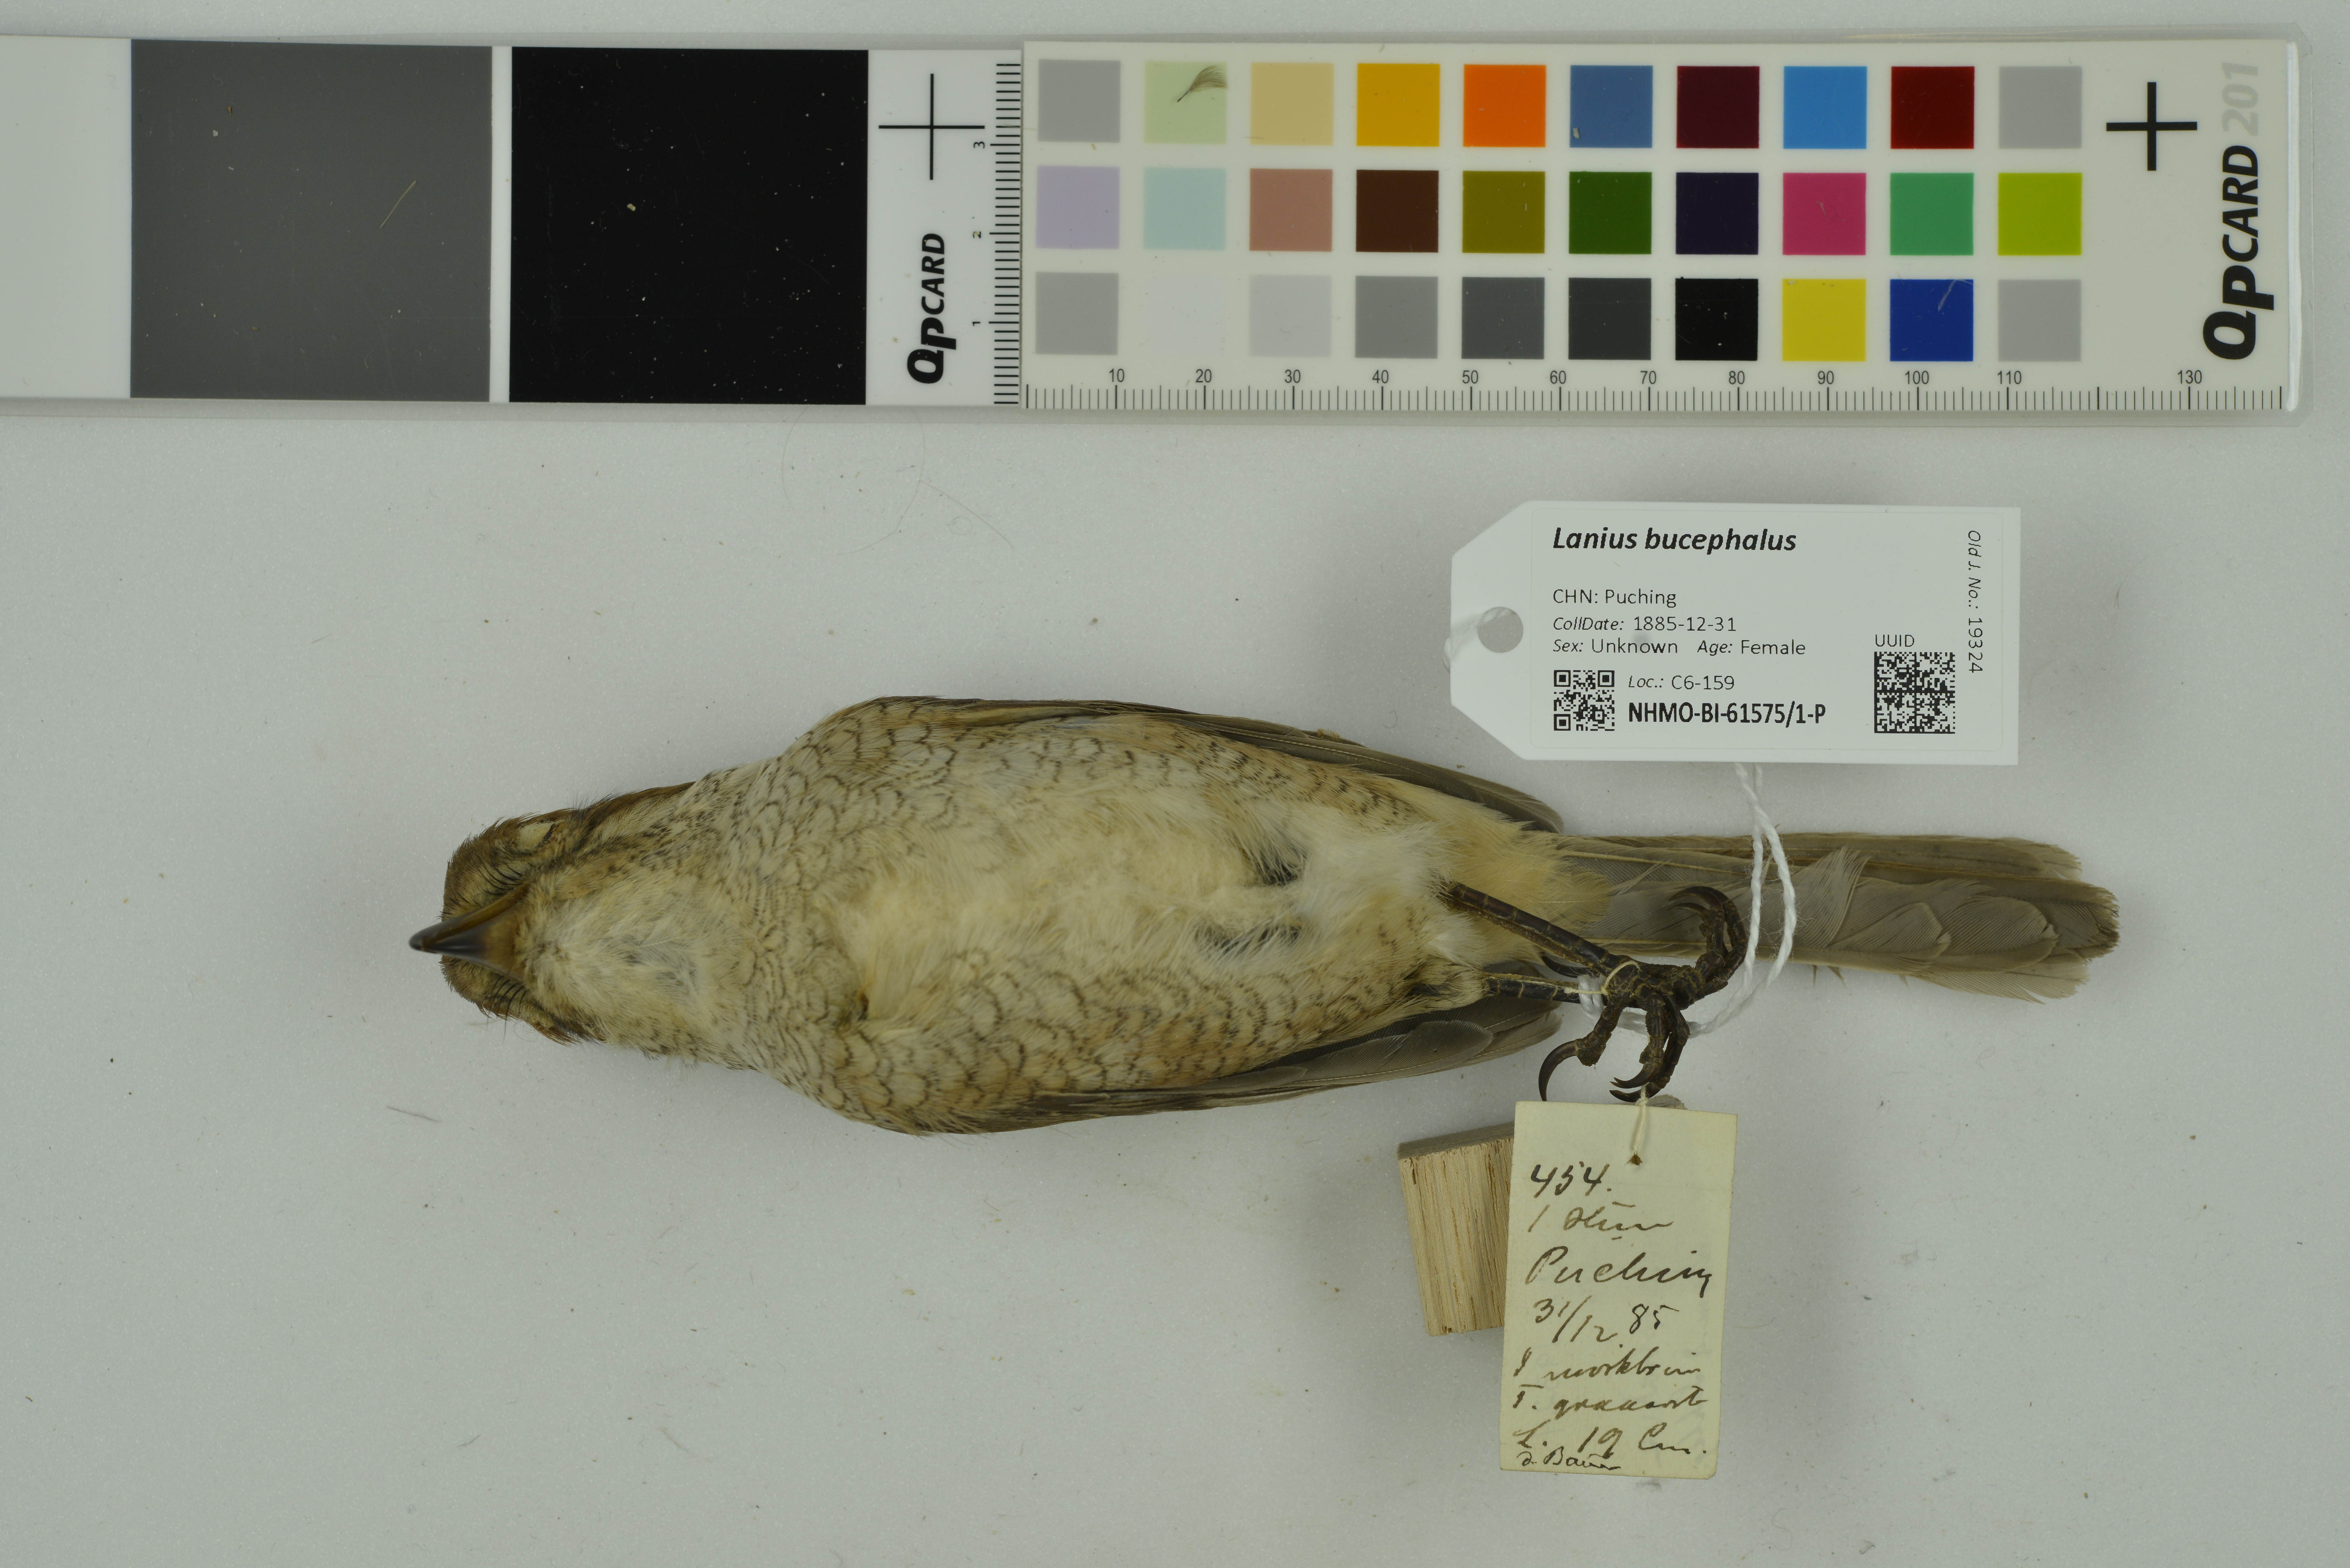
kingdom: Animalia
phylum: Chordata
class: Aves
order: Passeriformes
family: Laniidae
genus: Lanius
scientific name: Lanius bucephalus
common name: Bull-headed shrike
